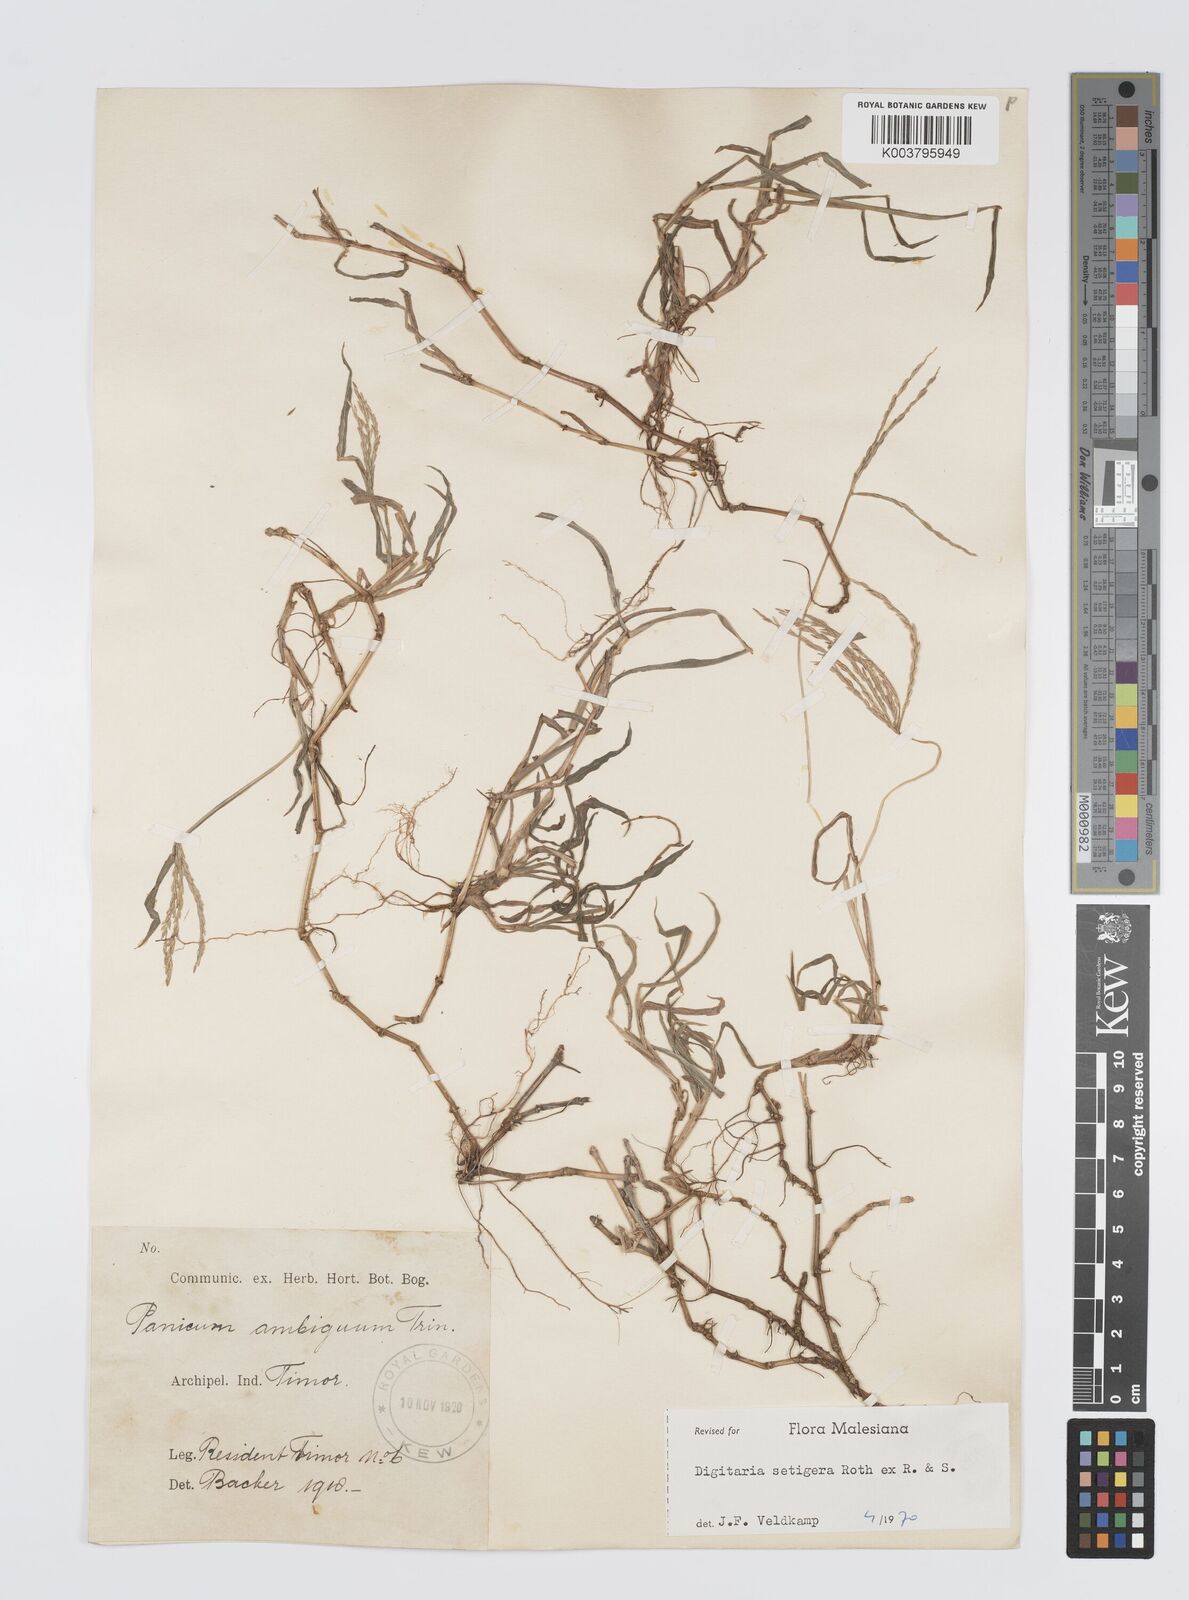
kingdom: Plantae
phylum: Tracheophyta
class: Liliopsida
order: Poales
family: Poaceae
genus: Digitaria
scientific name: Digitaria setigera
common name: East indian crabgrass
